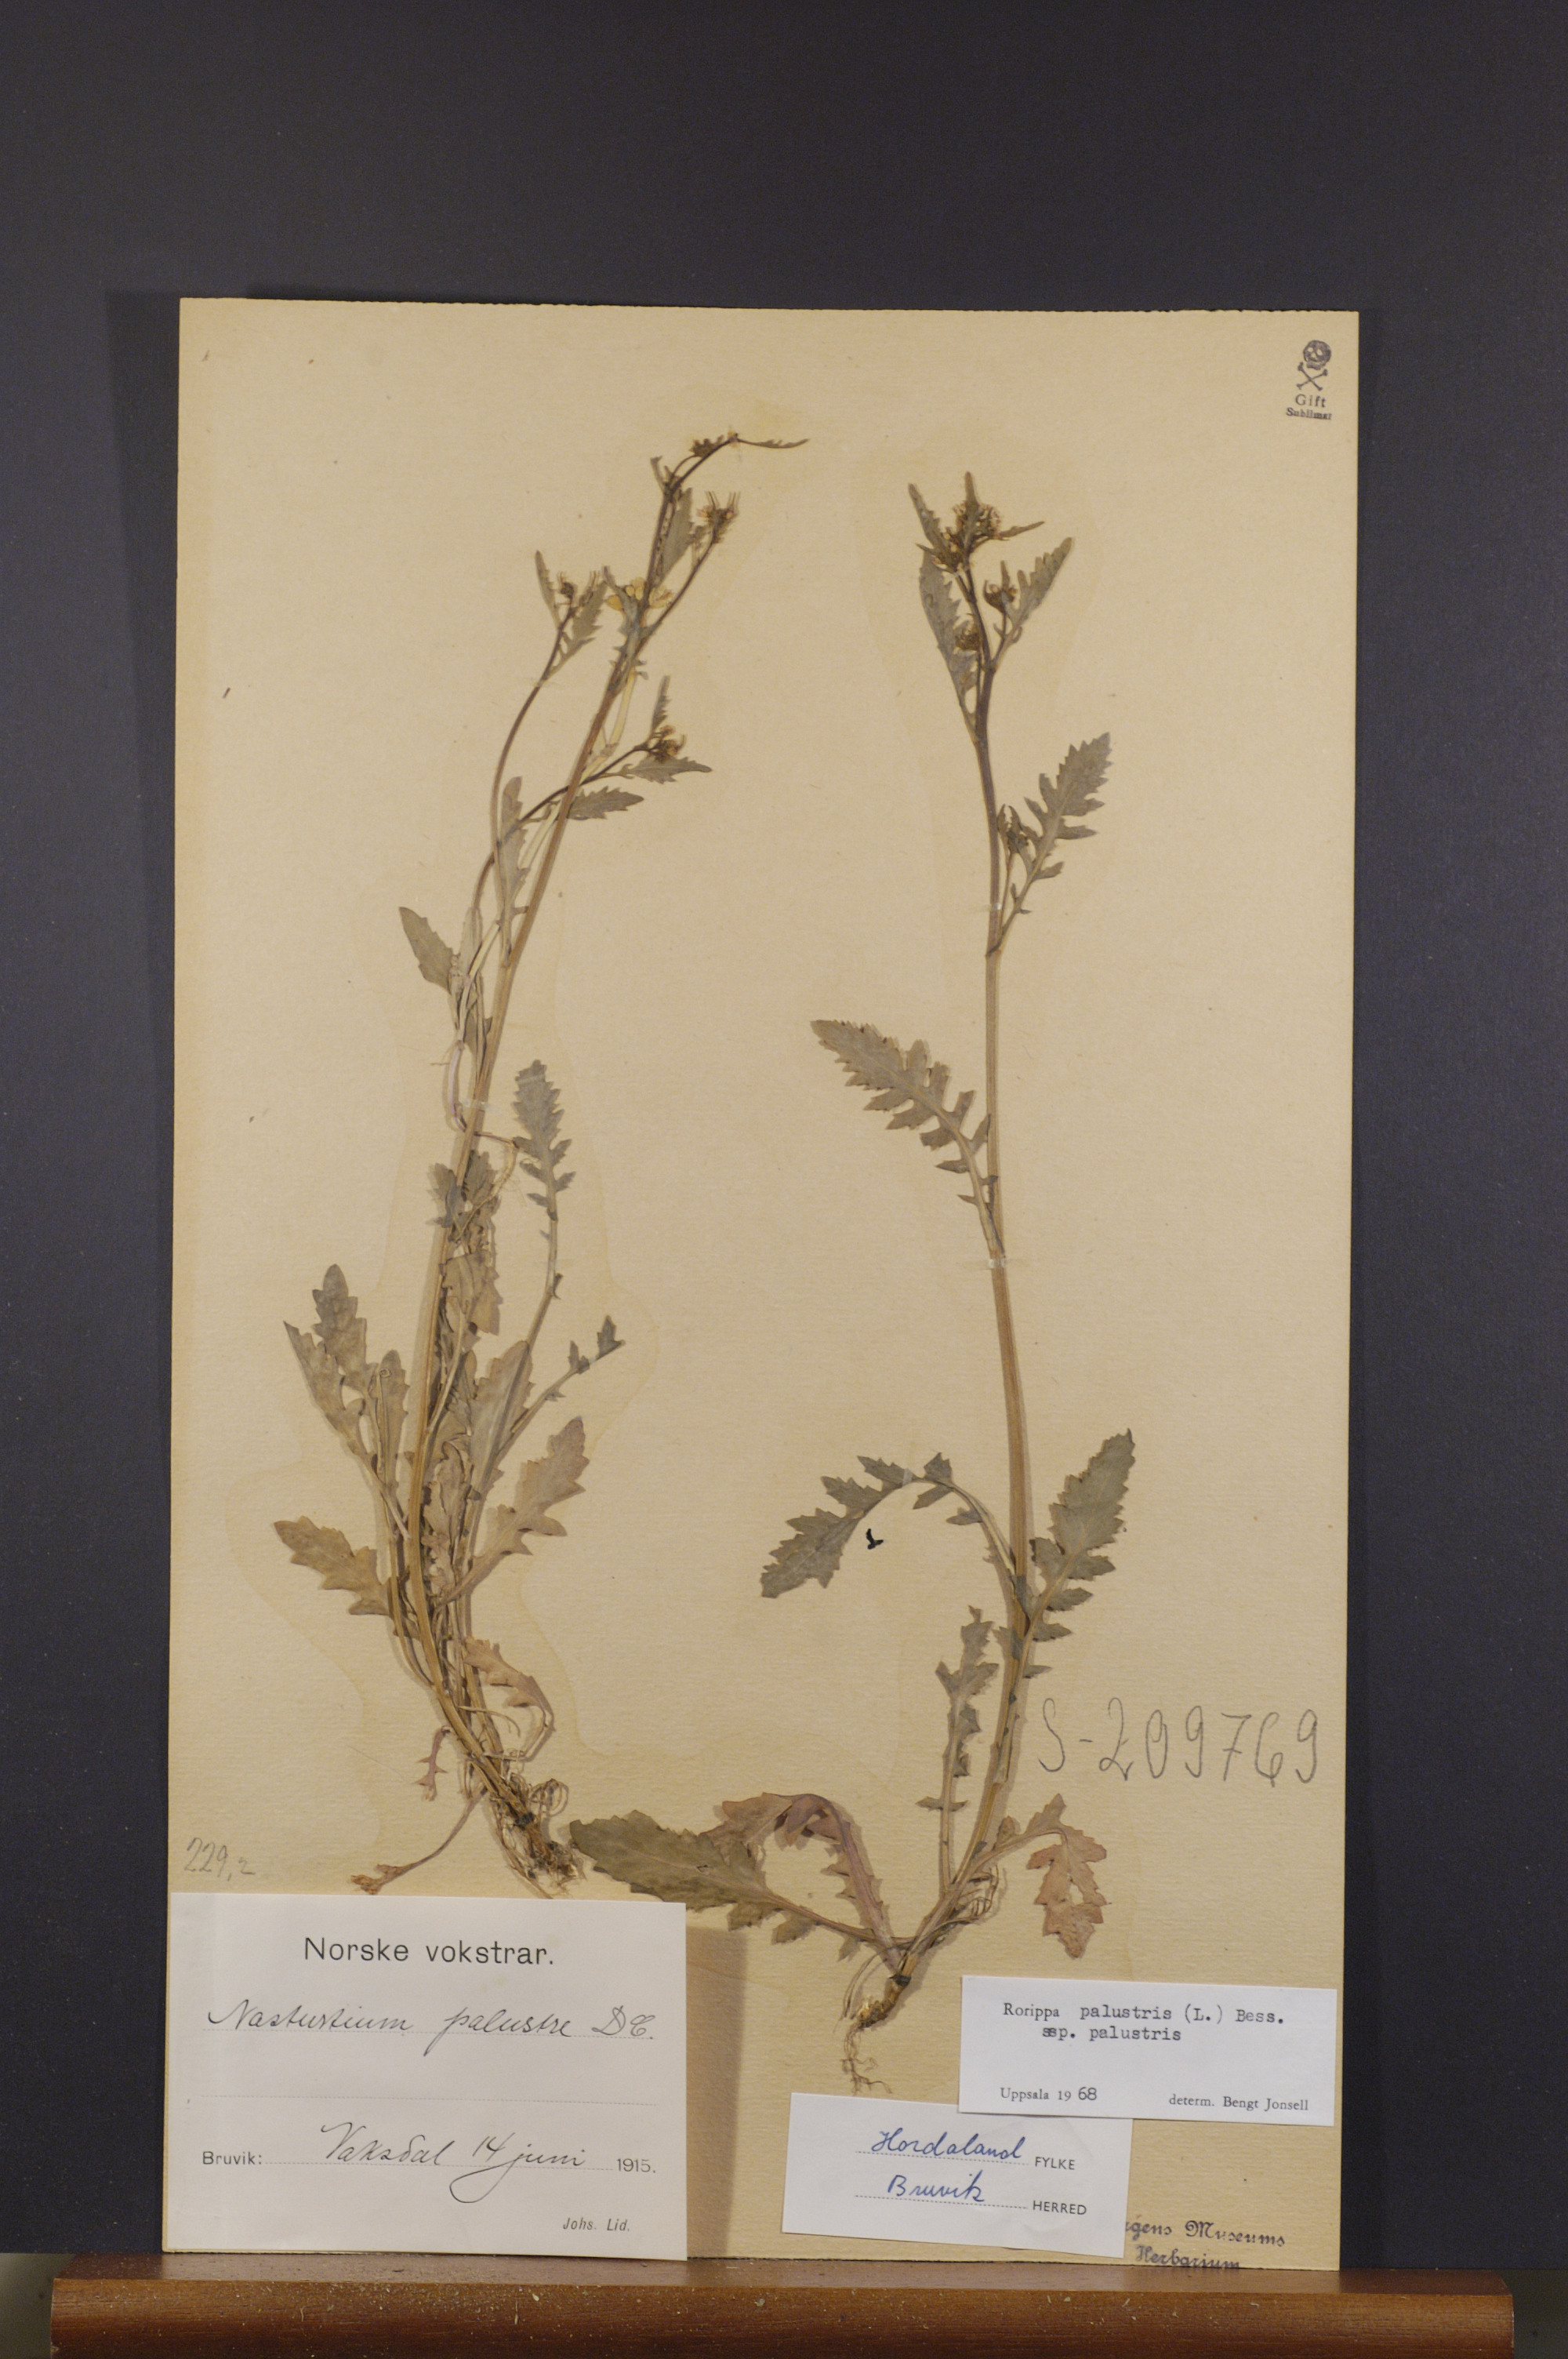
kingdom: Plantae
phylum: Tracheophyta
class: Magnoliopsida
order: Brassicales
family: Brassicaceae
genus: Rorippa
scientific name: Rorippa palustris
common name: Marsh yellow-cress
